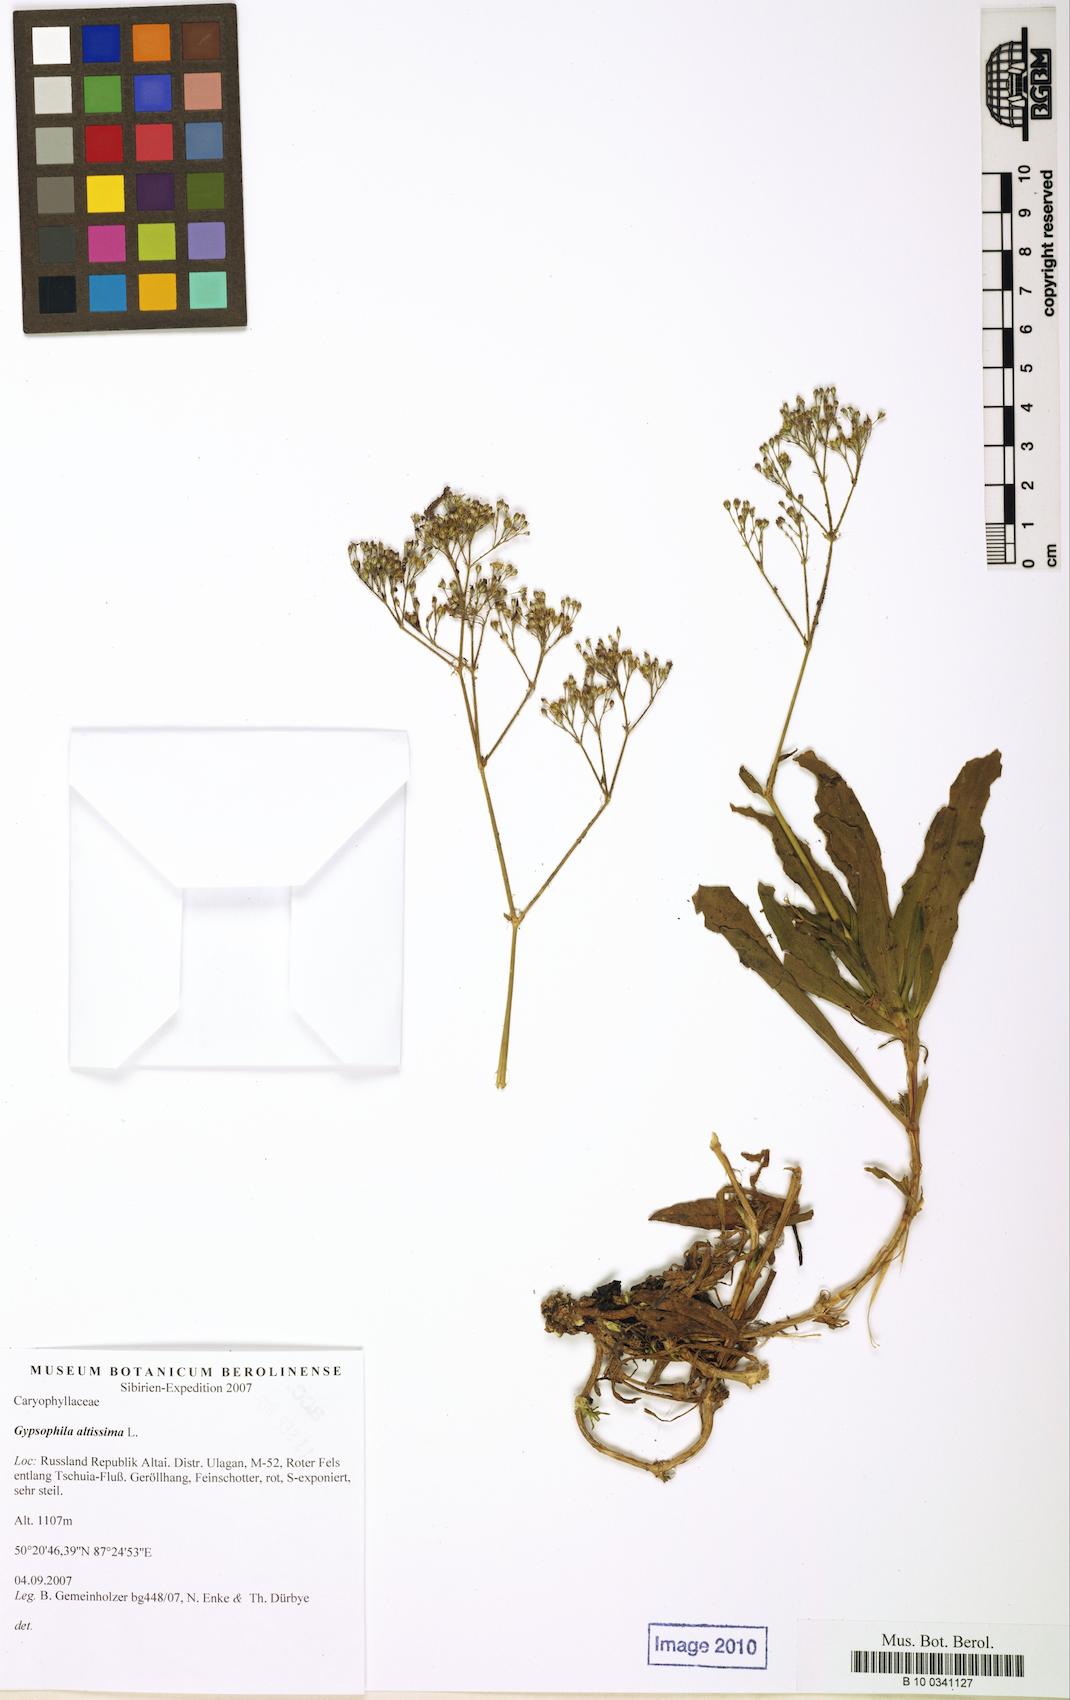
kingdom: Plantae
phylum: Tracheophyta
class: Magnoliopsida
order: Caryophyllales
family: Caryophyllaceae
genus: Gypsophila
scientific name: Gypsophila altissima
